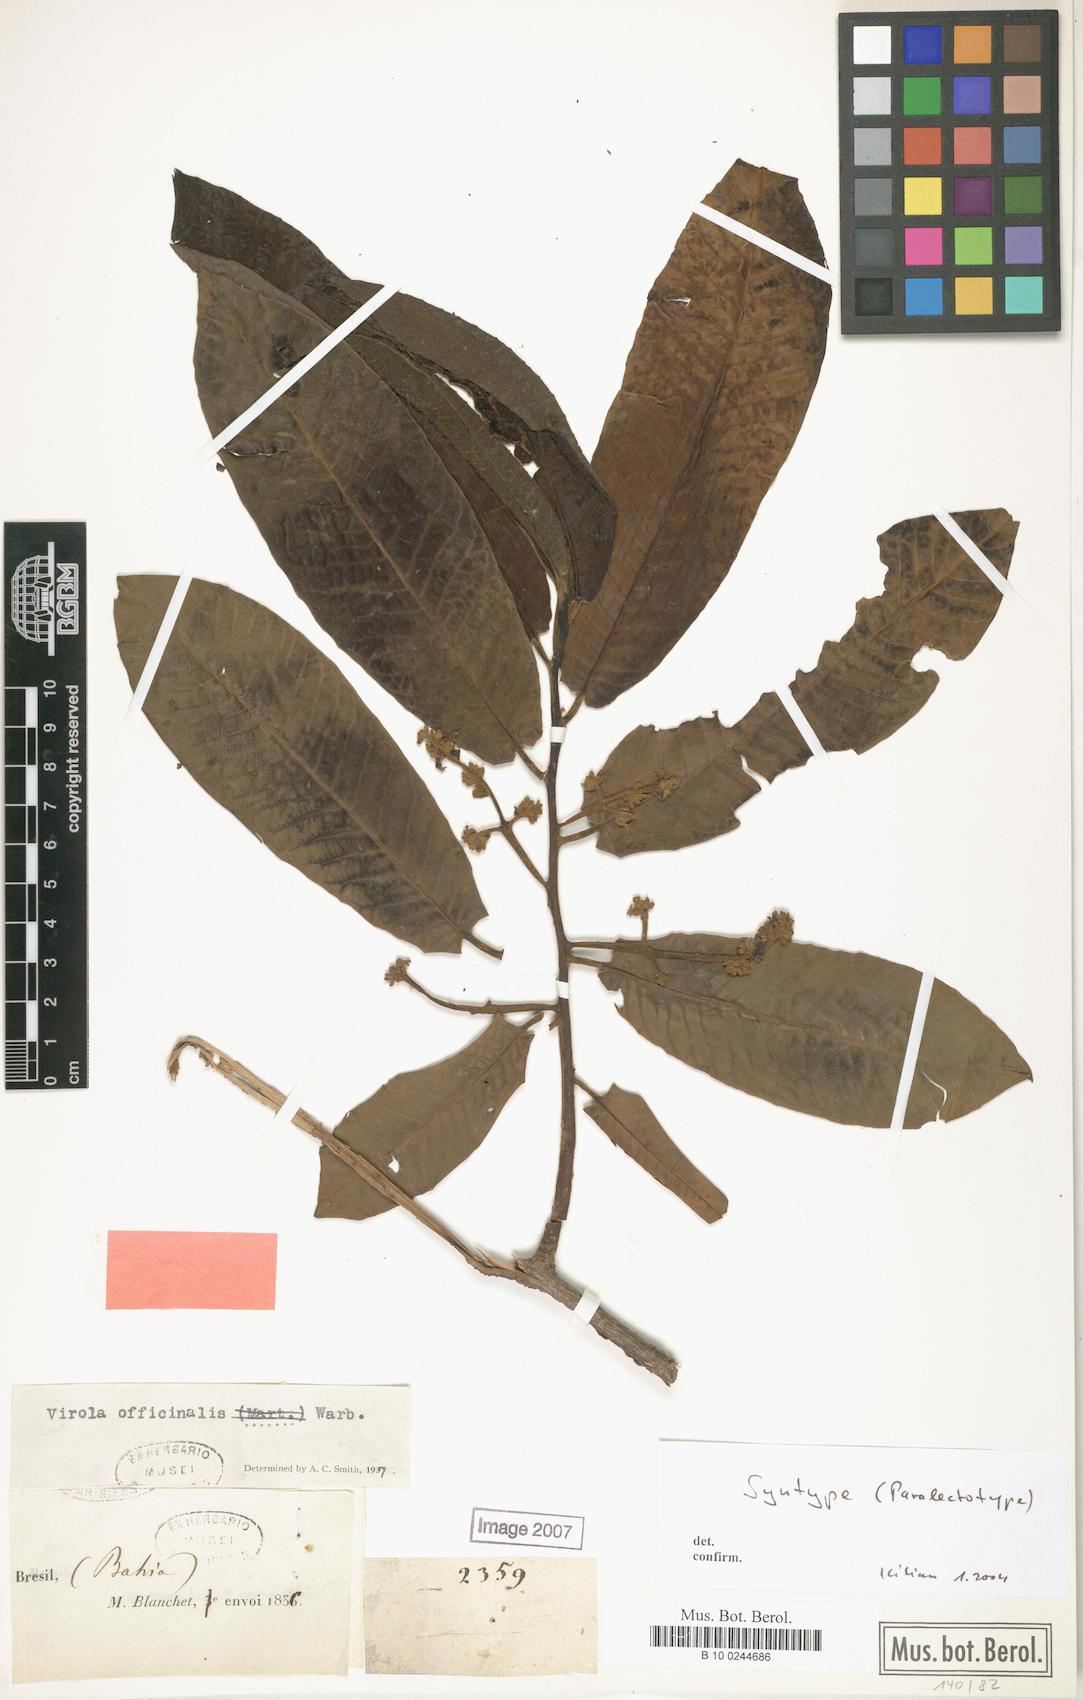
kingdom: Plantae
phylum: Tracheophyta
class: Magnoliopsida
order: Magnoliales
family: Myristicaceae
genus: Virola
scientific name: Virola officinalis
